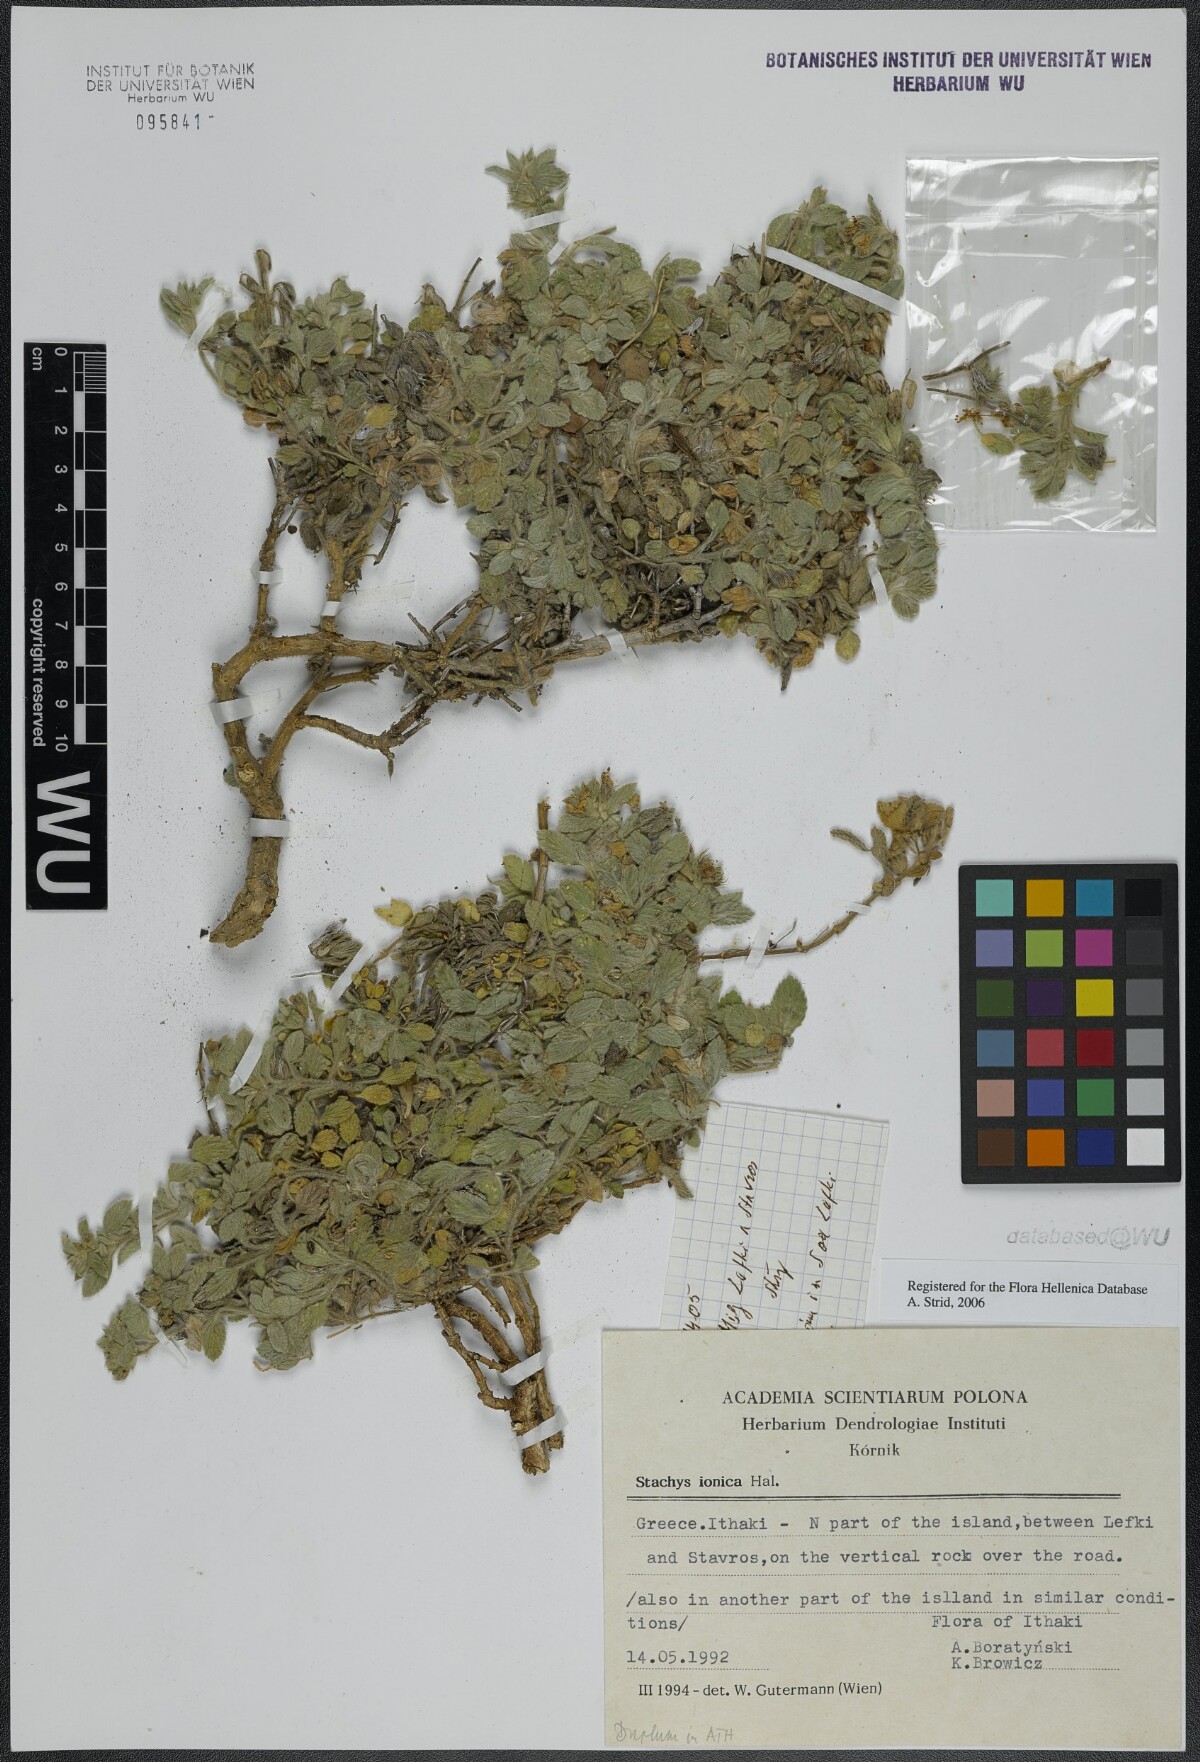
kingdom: Plantae
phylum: Tracheophyta
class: Magnoliopsida
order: Lamiales
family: Lamiaceae
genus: Stachys
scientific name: Stachys ionica
